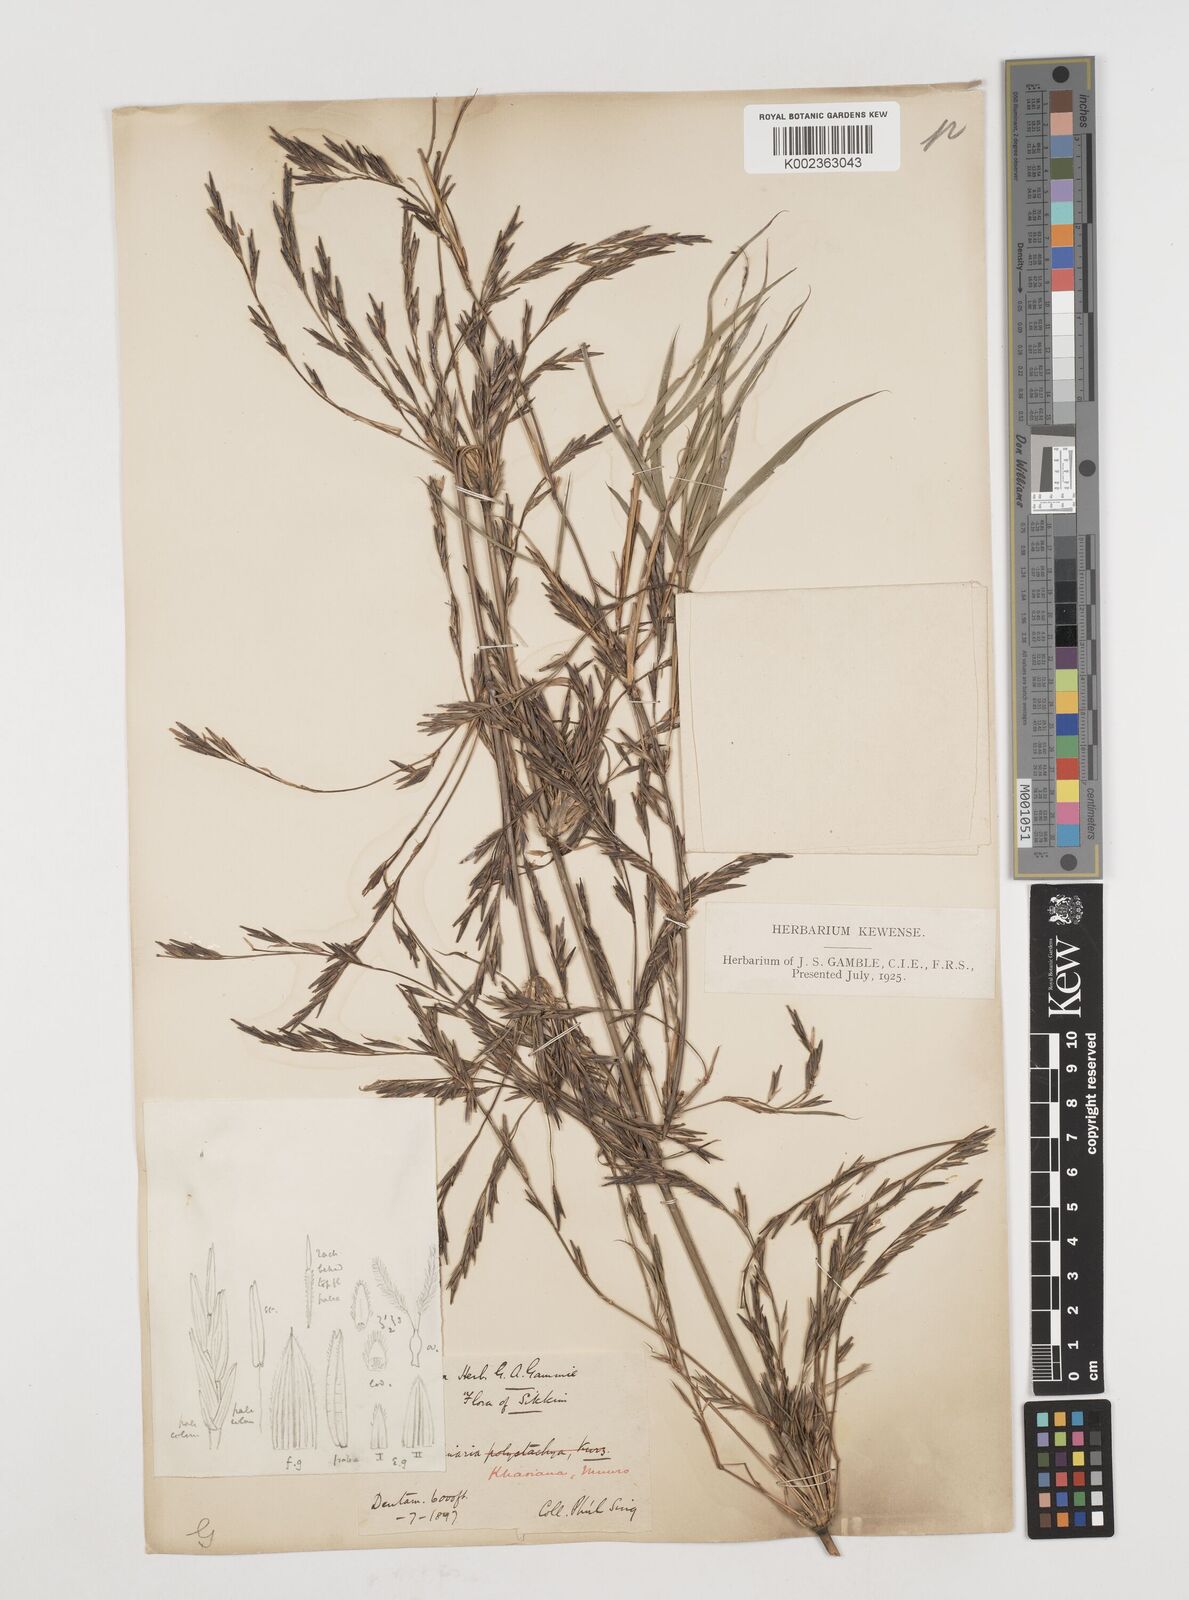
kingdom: Plantae
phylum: Tracheophyta
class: Liliopsida
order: Poales
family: Poaceae
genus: Drepanostachyum
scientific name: Drepanostachyum khasianum
